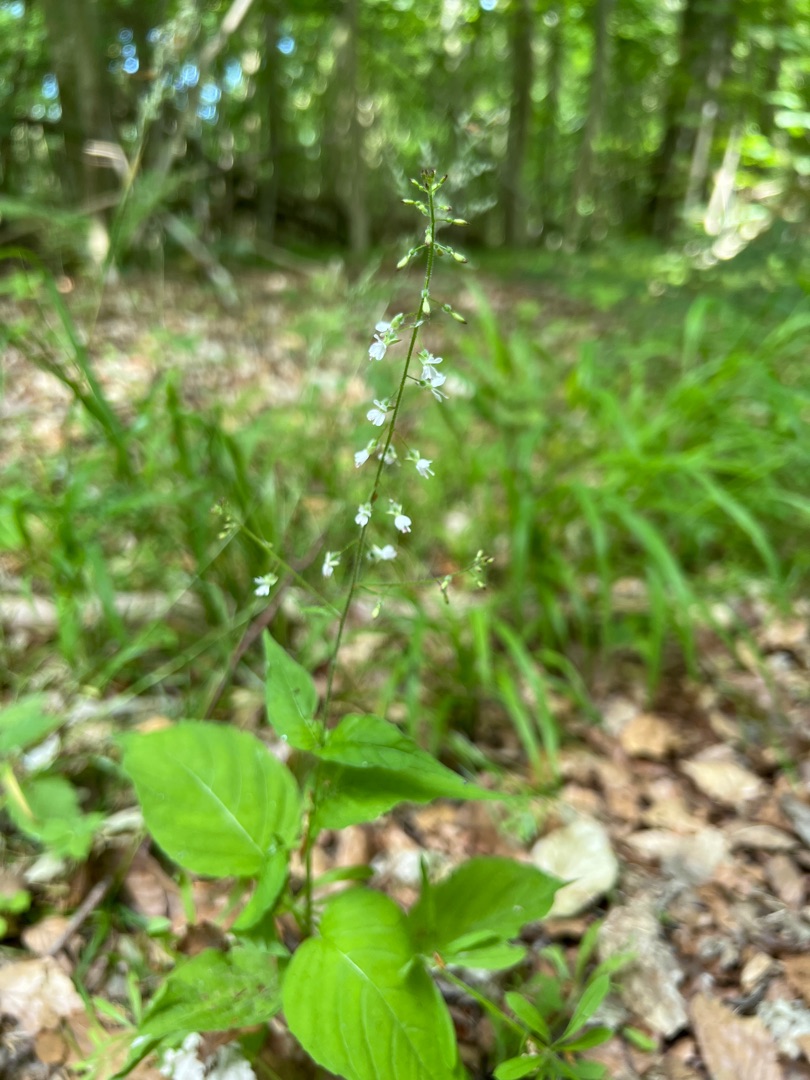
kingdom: Plantae
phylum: Tracheophyta
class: Magnoliopsida
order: Myrtales
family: Onagraceae
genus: Circaea
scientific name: Circaea lutetiana
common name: Dunet steffensurt
